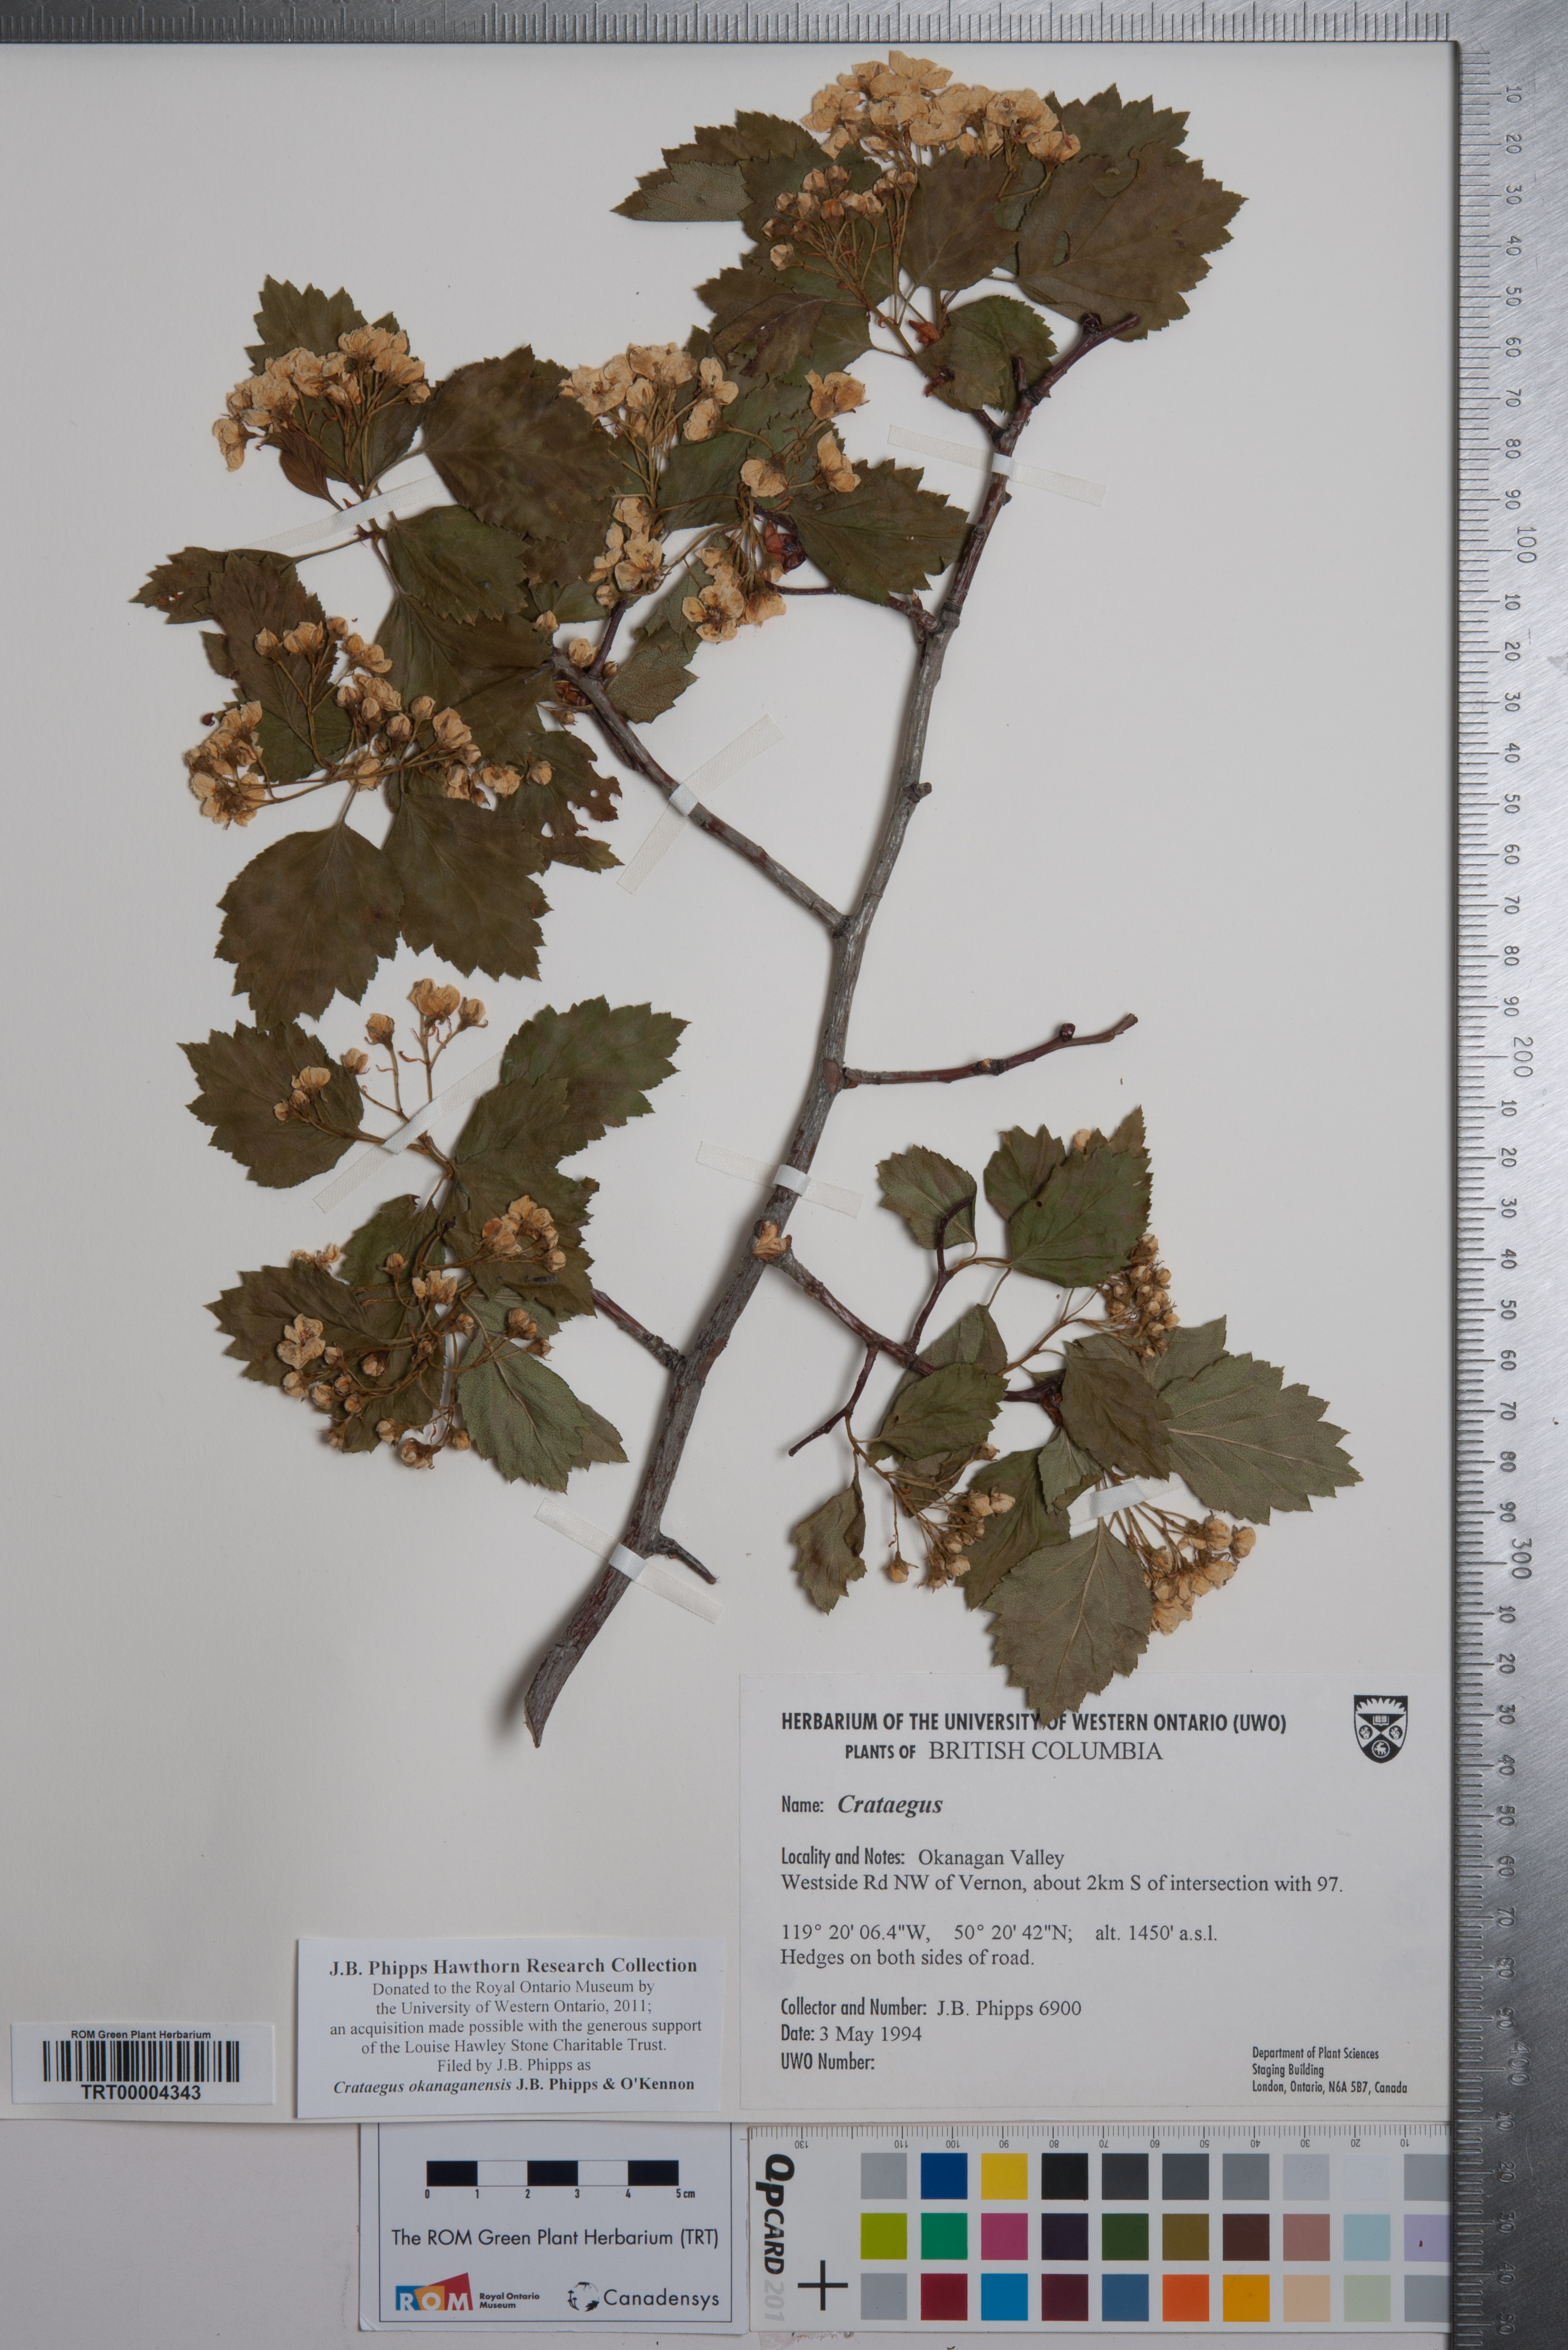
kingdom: Plantae
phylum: Tracheophyta
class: Magnoliopsida
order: Rosales
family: Rosaceae
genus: Crataegus
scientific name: Crataegus okanaganensis
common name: Okanagan valley hawthorn
